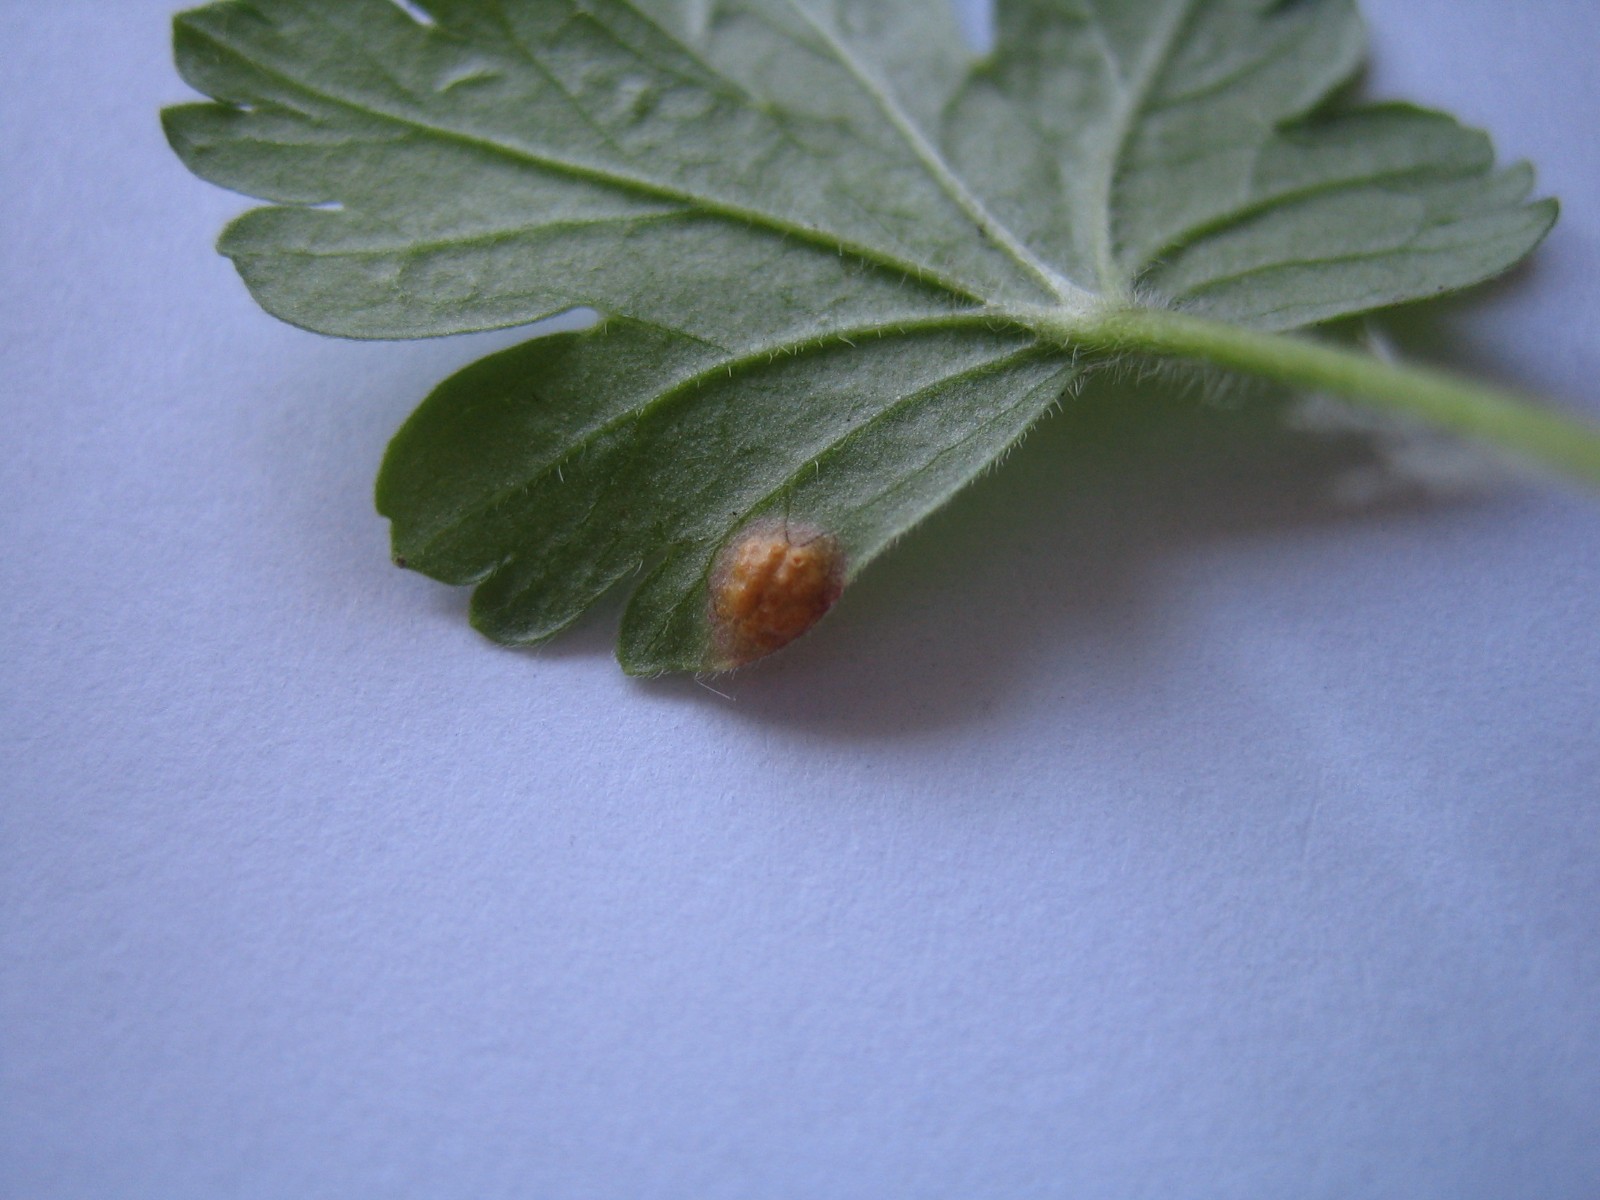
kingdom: Fungi
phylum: Basidiomycota
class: Pucciniomycetes
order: Pucciniales
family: Gymnosporangiaceae
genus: Gymnosporangium
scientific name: Gymnosporangium
